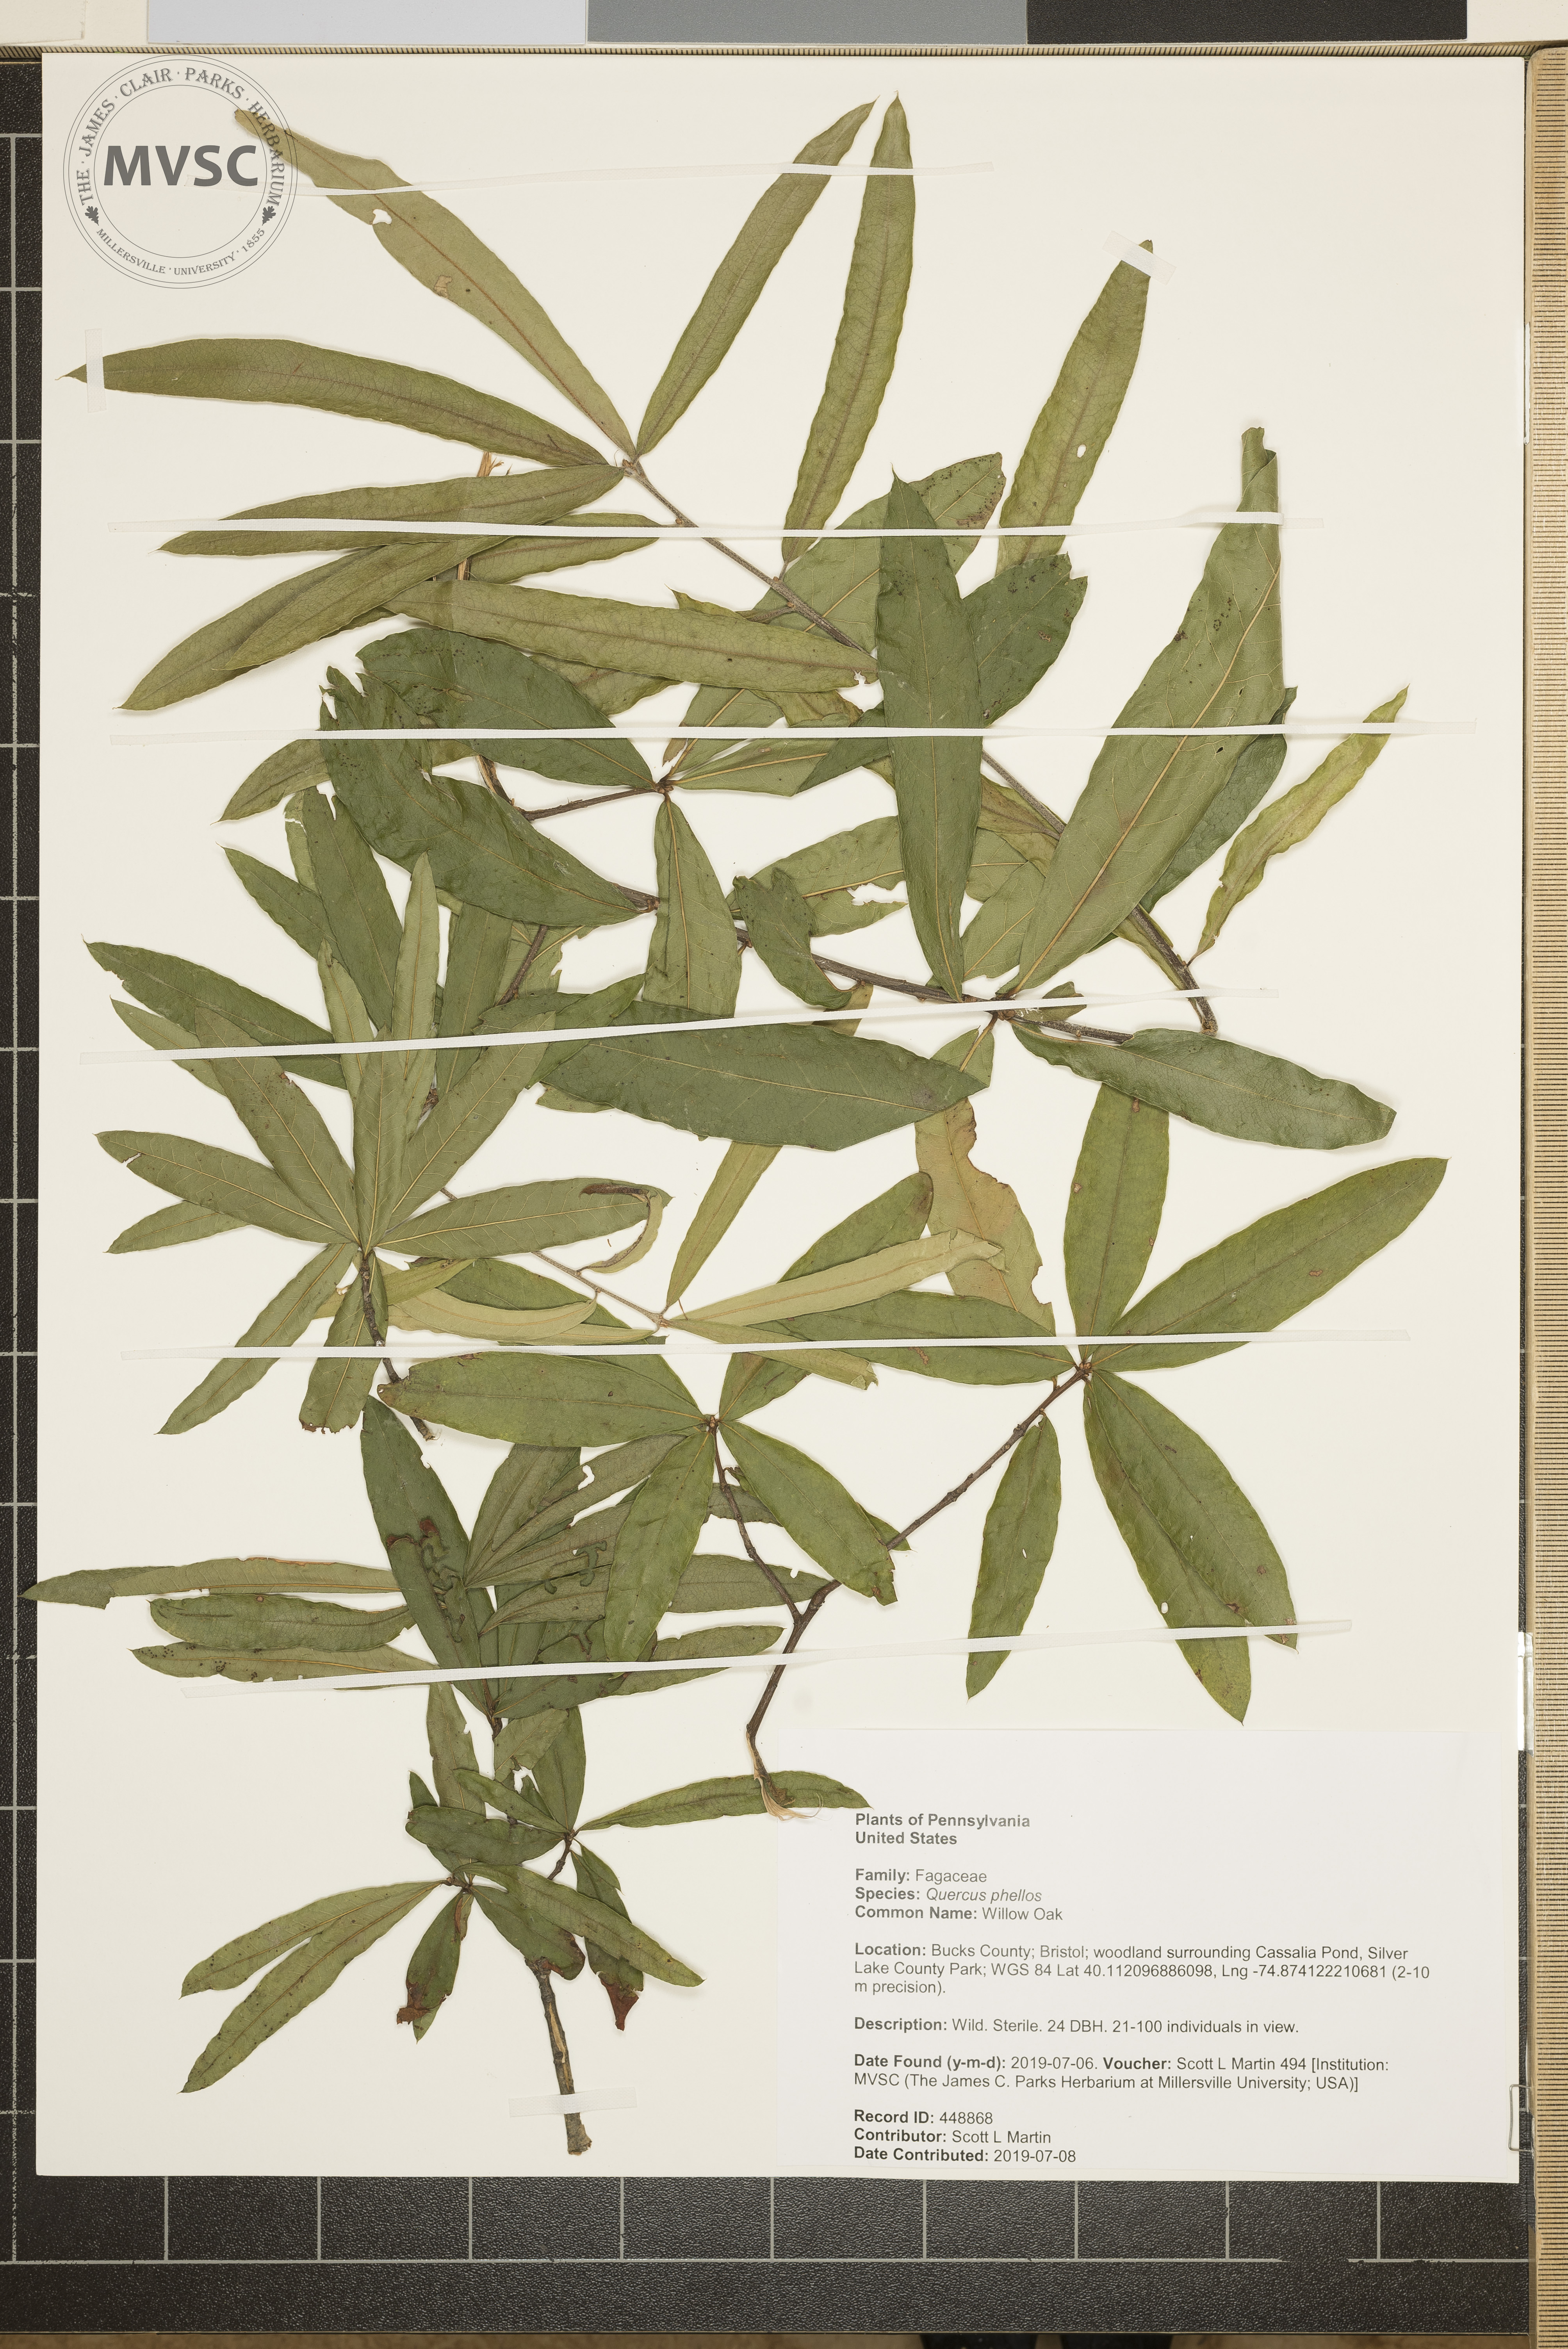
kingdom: Plantae
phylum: Tracheophyta
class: Magnoliopsida
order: Fagales
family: Fagaceae
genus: Quercus
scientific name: Quercus phellos
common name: Willow Oak
